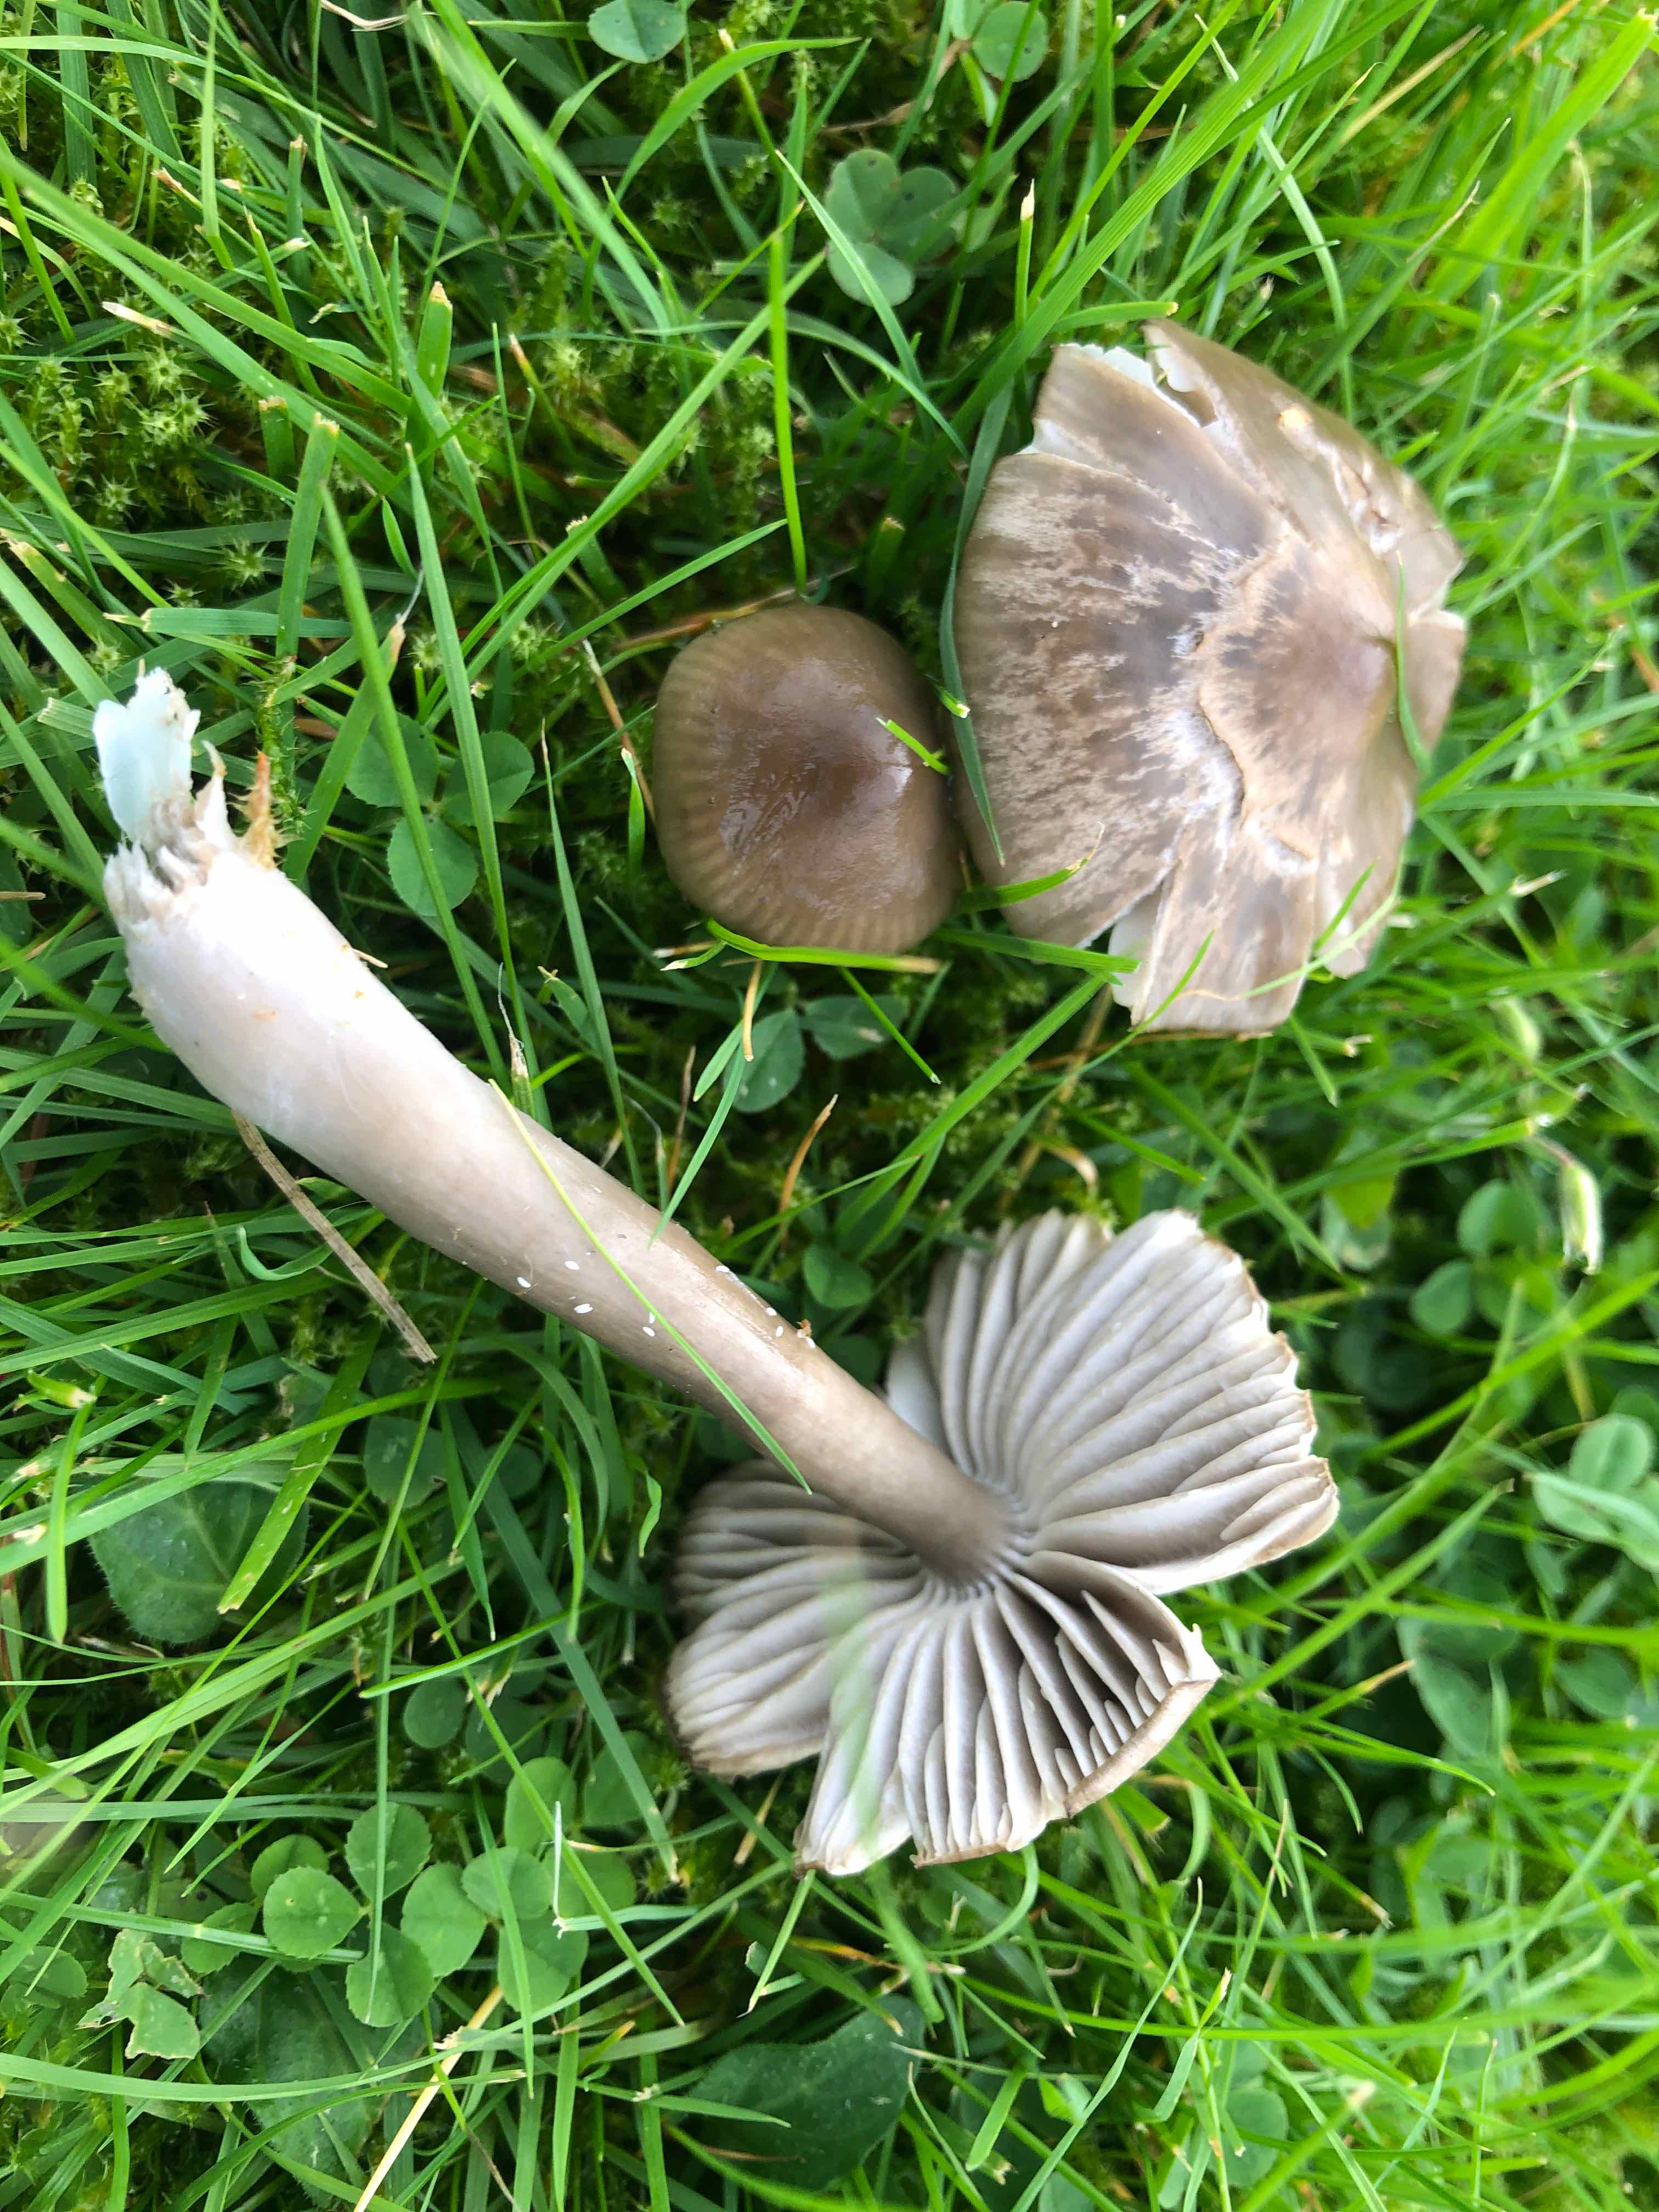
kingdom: Fungi
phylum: Basidiomycota
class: Agaricomycetes
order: Agaricales
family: Hygrophoraceae
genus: Gliophorus
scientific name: Gliophorus irrigatus
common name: slimet vokshat
